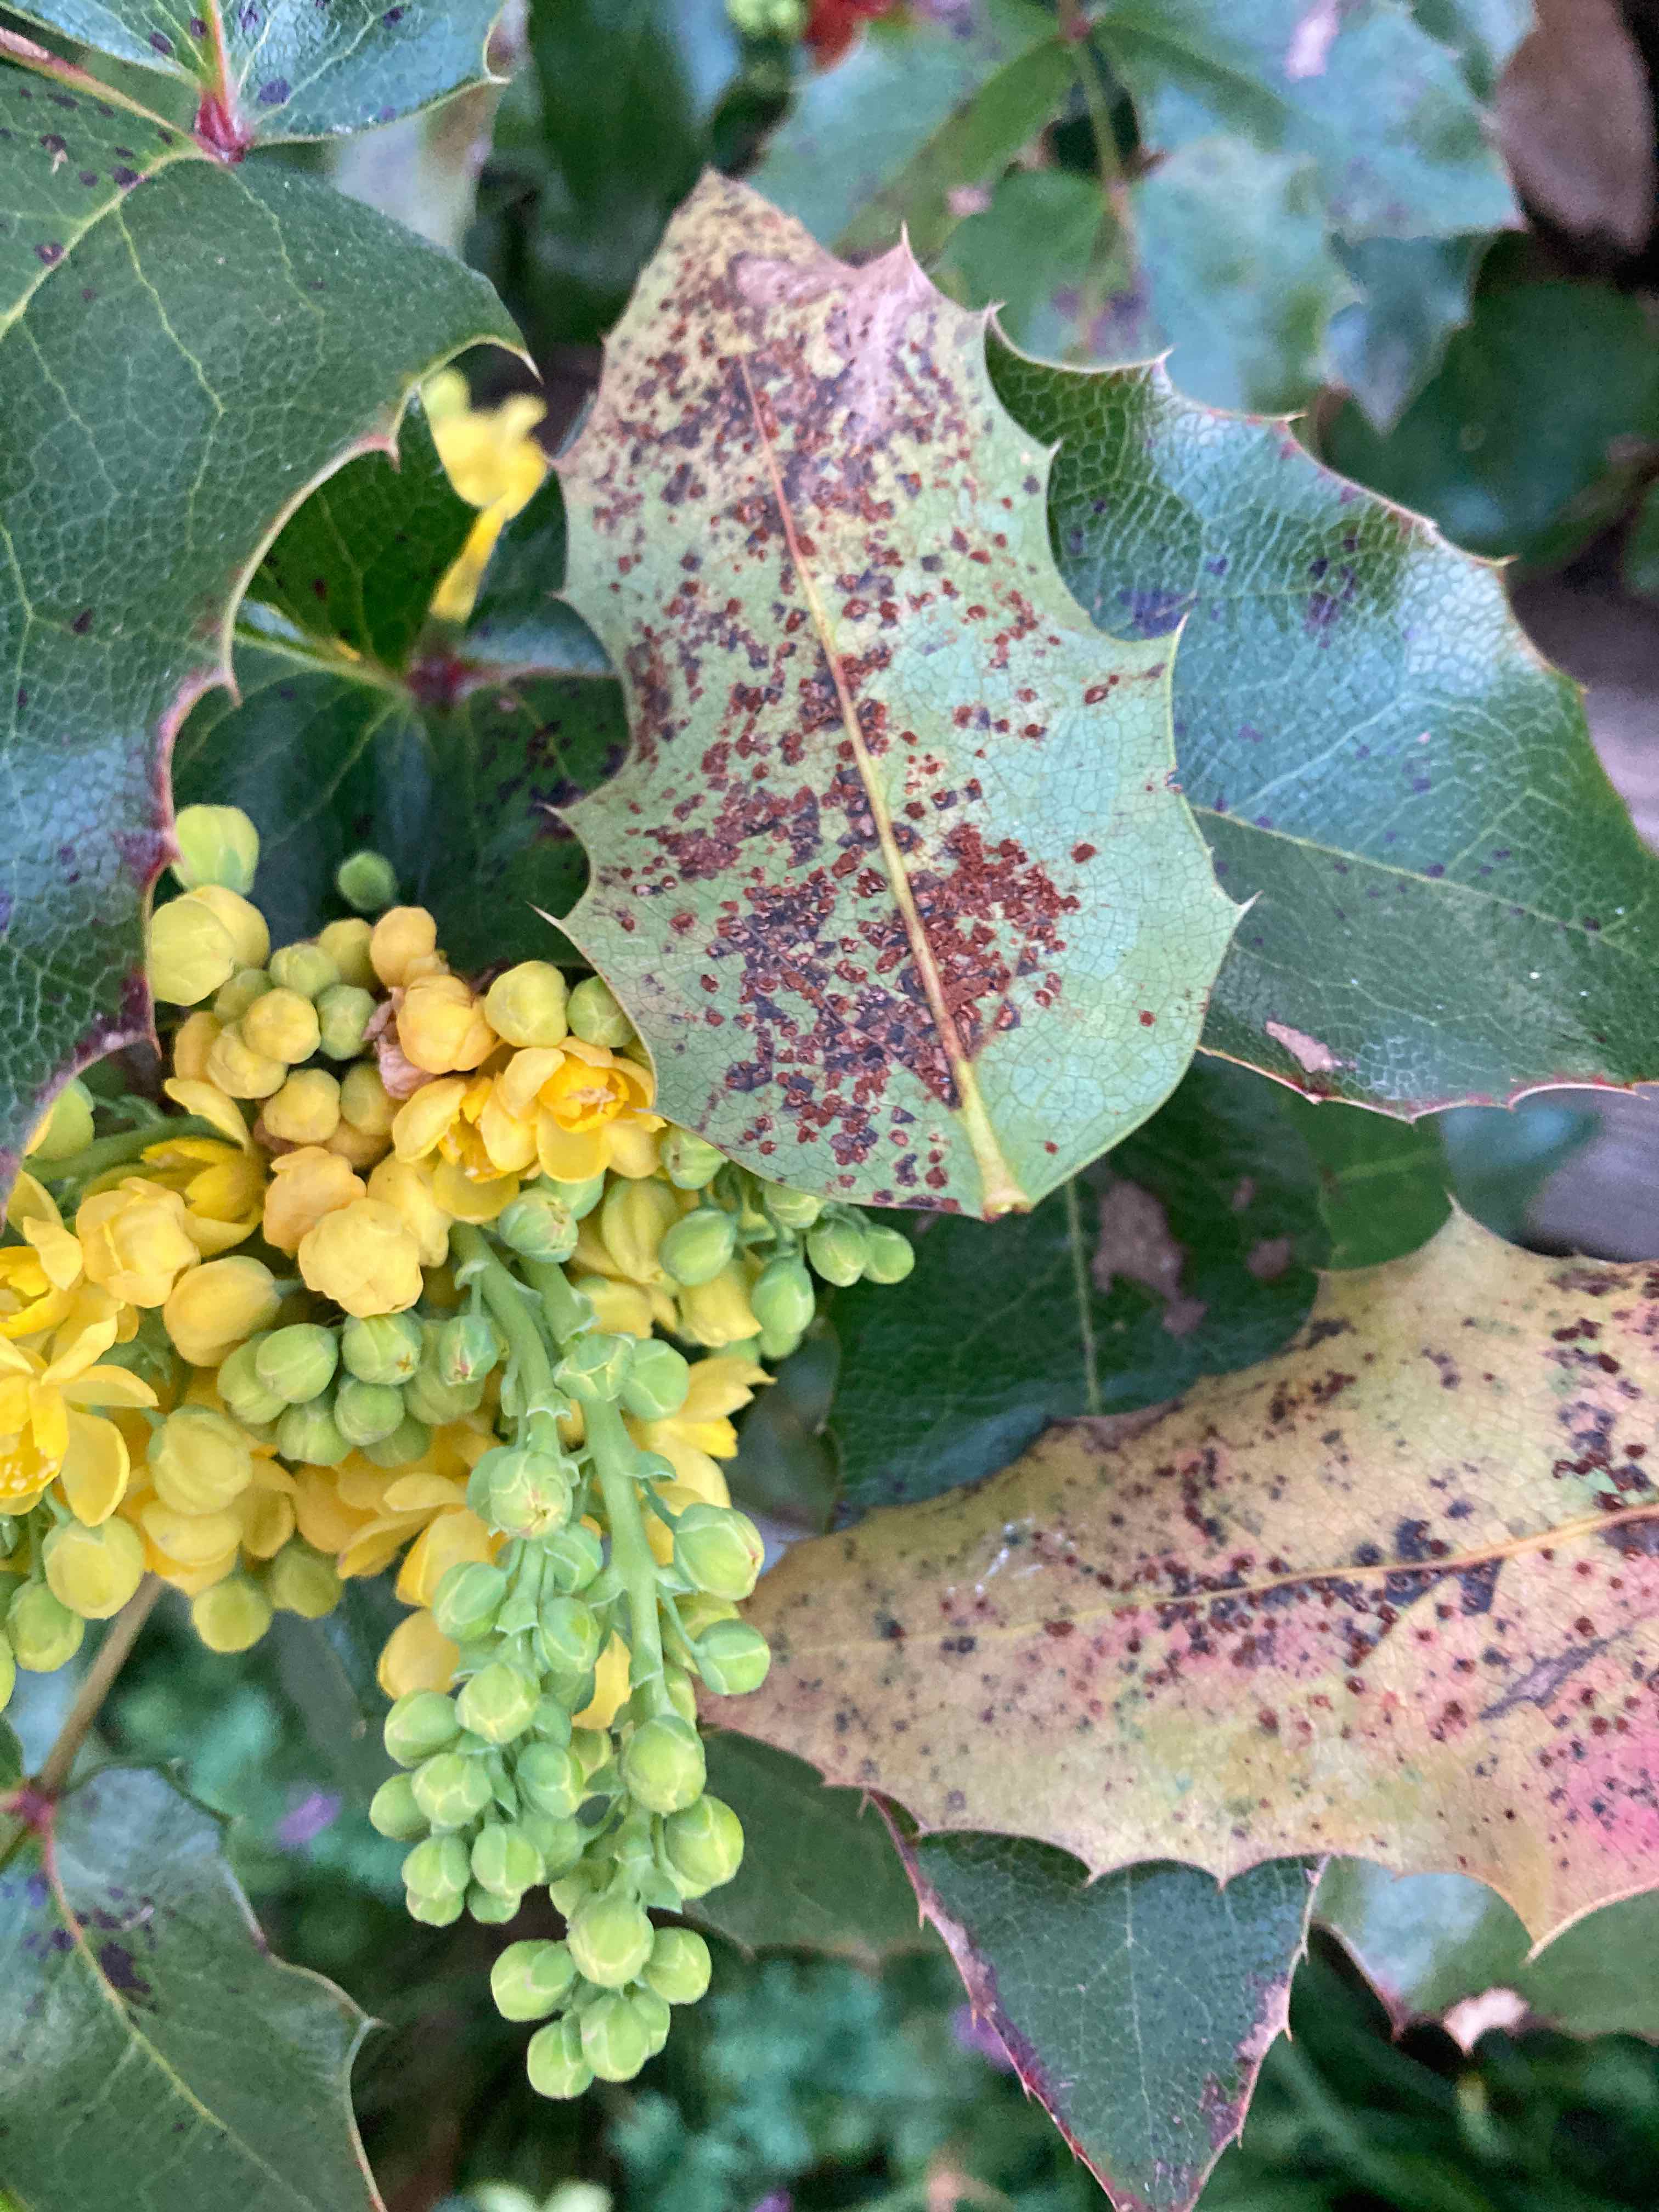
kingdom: Fungi
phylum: Basidiomycota
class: Pucciniomycetes
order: Pucciniales
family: Pucciniaceae
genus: Cumminsiella
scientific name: Cumminsiella mirabilissima
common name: mahonierust
